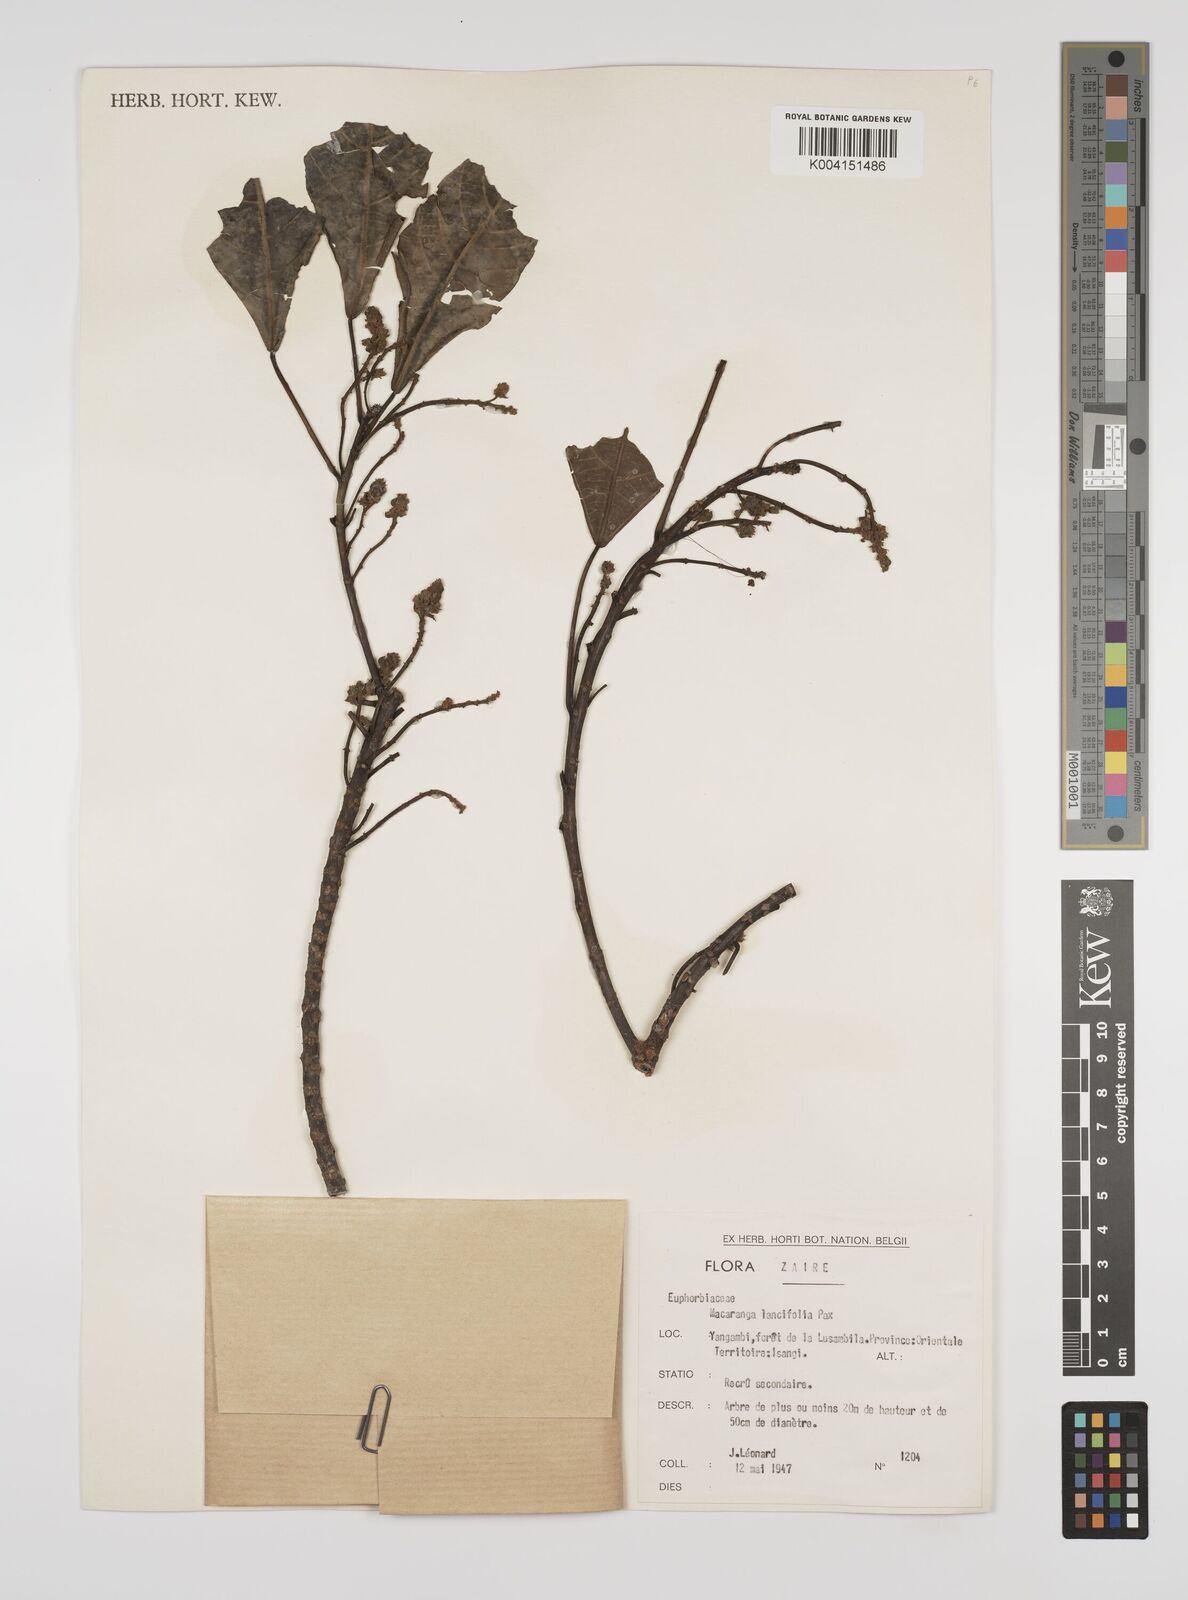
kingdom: Plantae
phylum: Tracheophyta
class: Magnoliopsida
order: Malpighiales
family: Euphorbiaceae
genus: Macaranga
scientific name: Macaranga barteri
